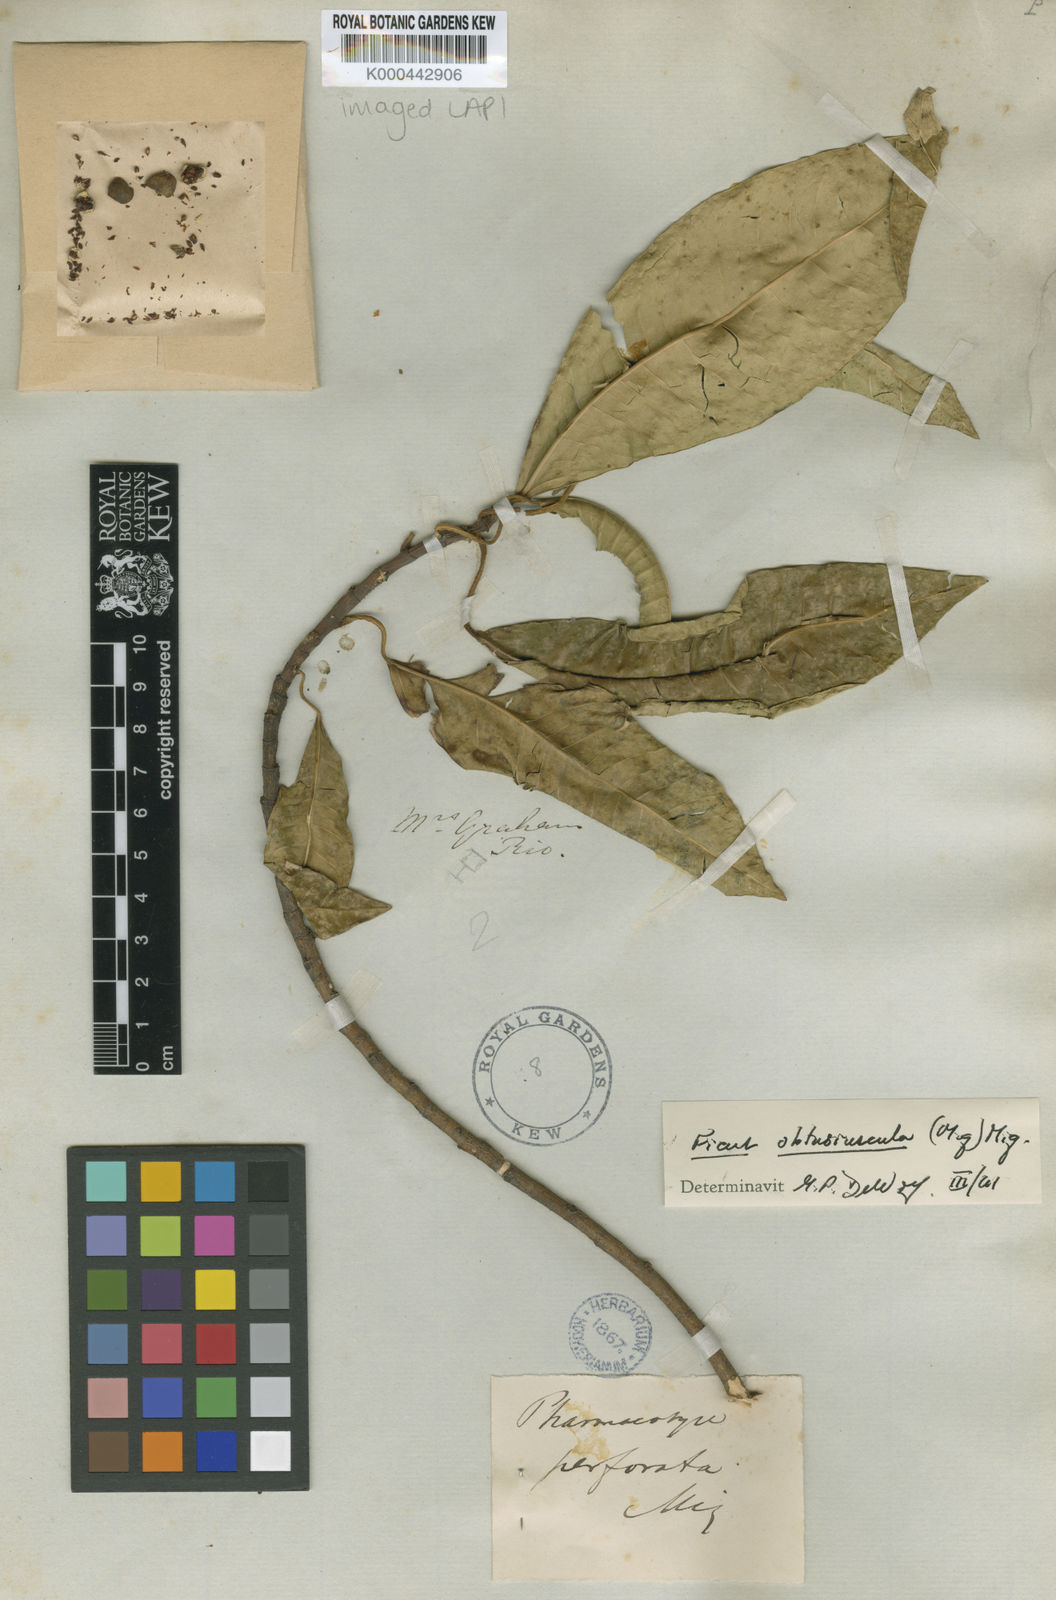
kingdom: Plantae
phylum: Tracheophyta
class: Magnoliopsida
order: Rosales
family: Moraceae
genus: Ficus
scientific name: Ficus obtusiuscula
